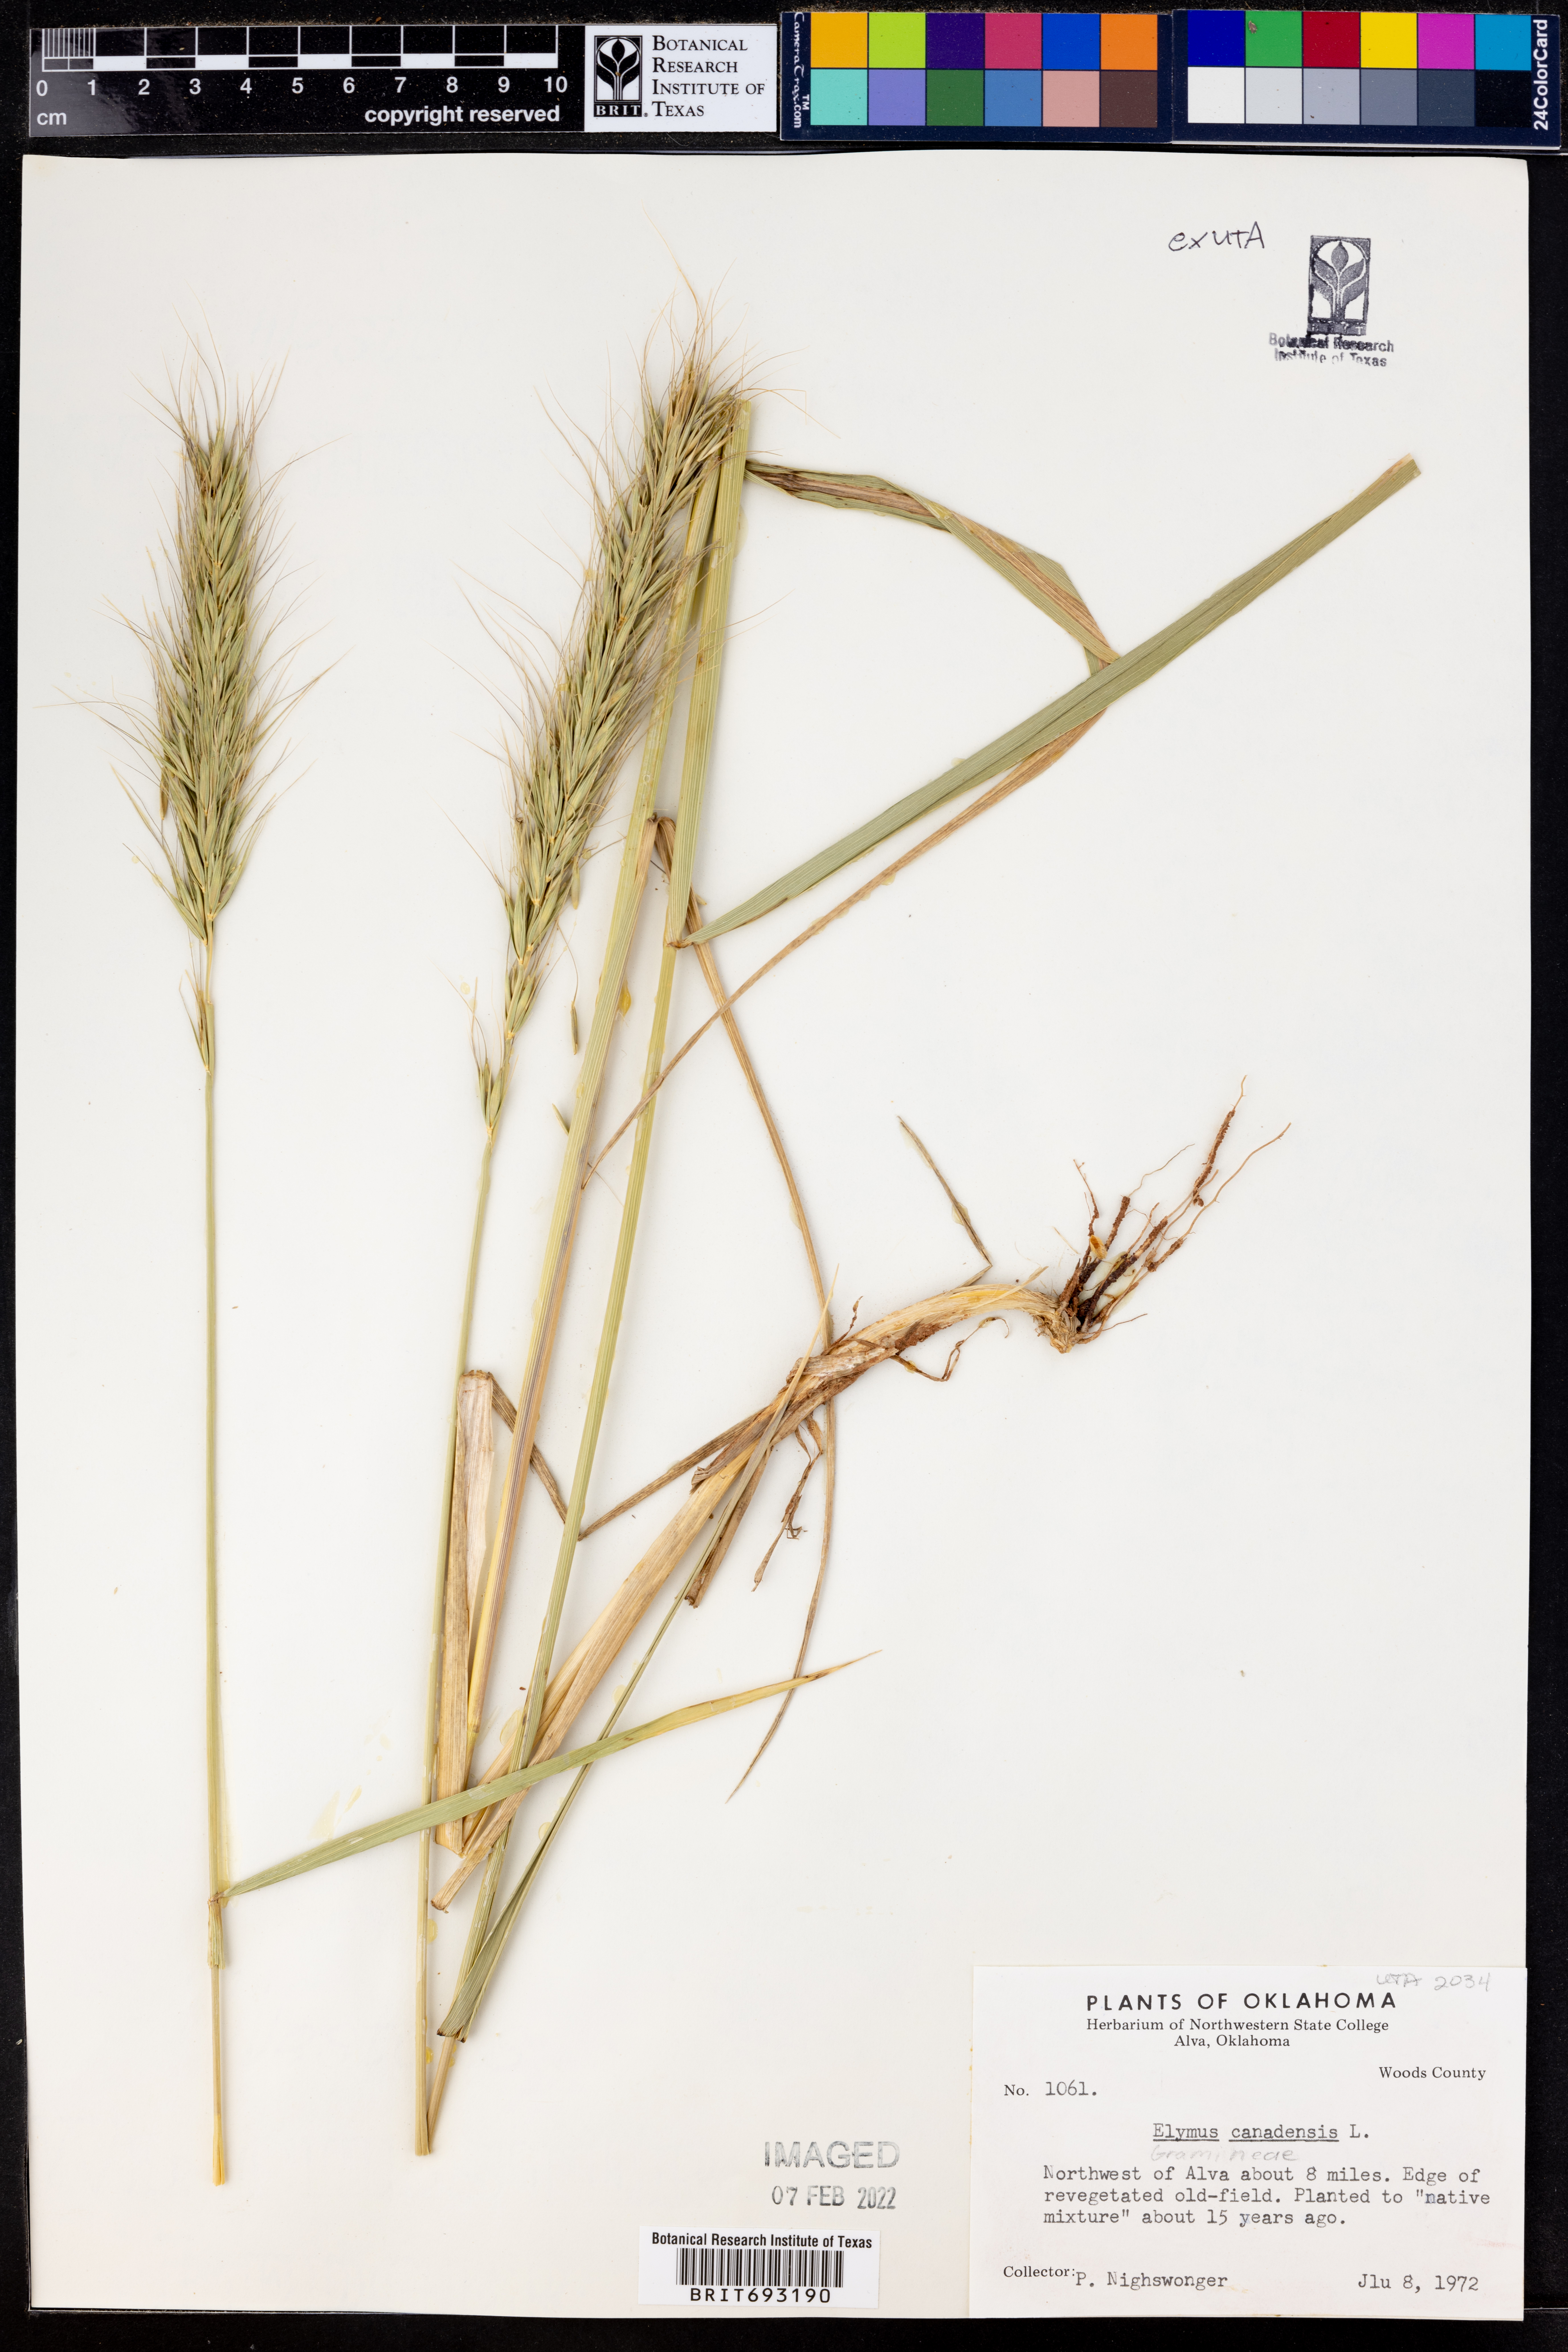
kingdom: Plantae
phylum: Tracheophyta
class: Liliopsida
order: Poales
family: Poaceae
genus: Elymus
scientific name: Elymus canadensis
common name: Canada wild rye
